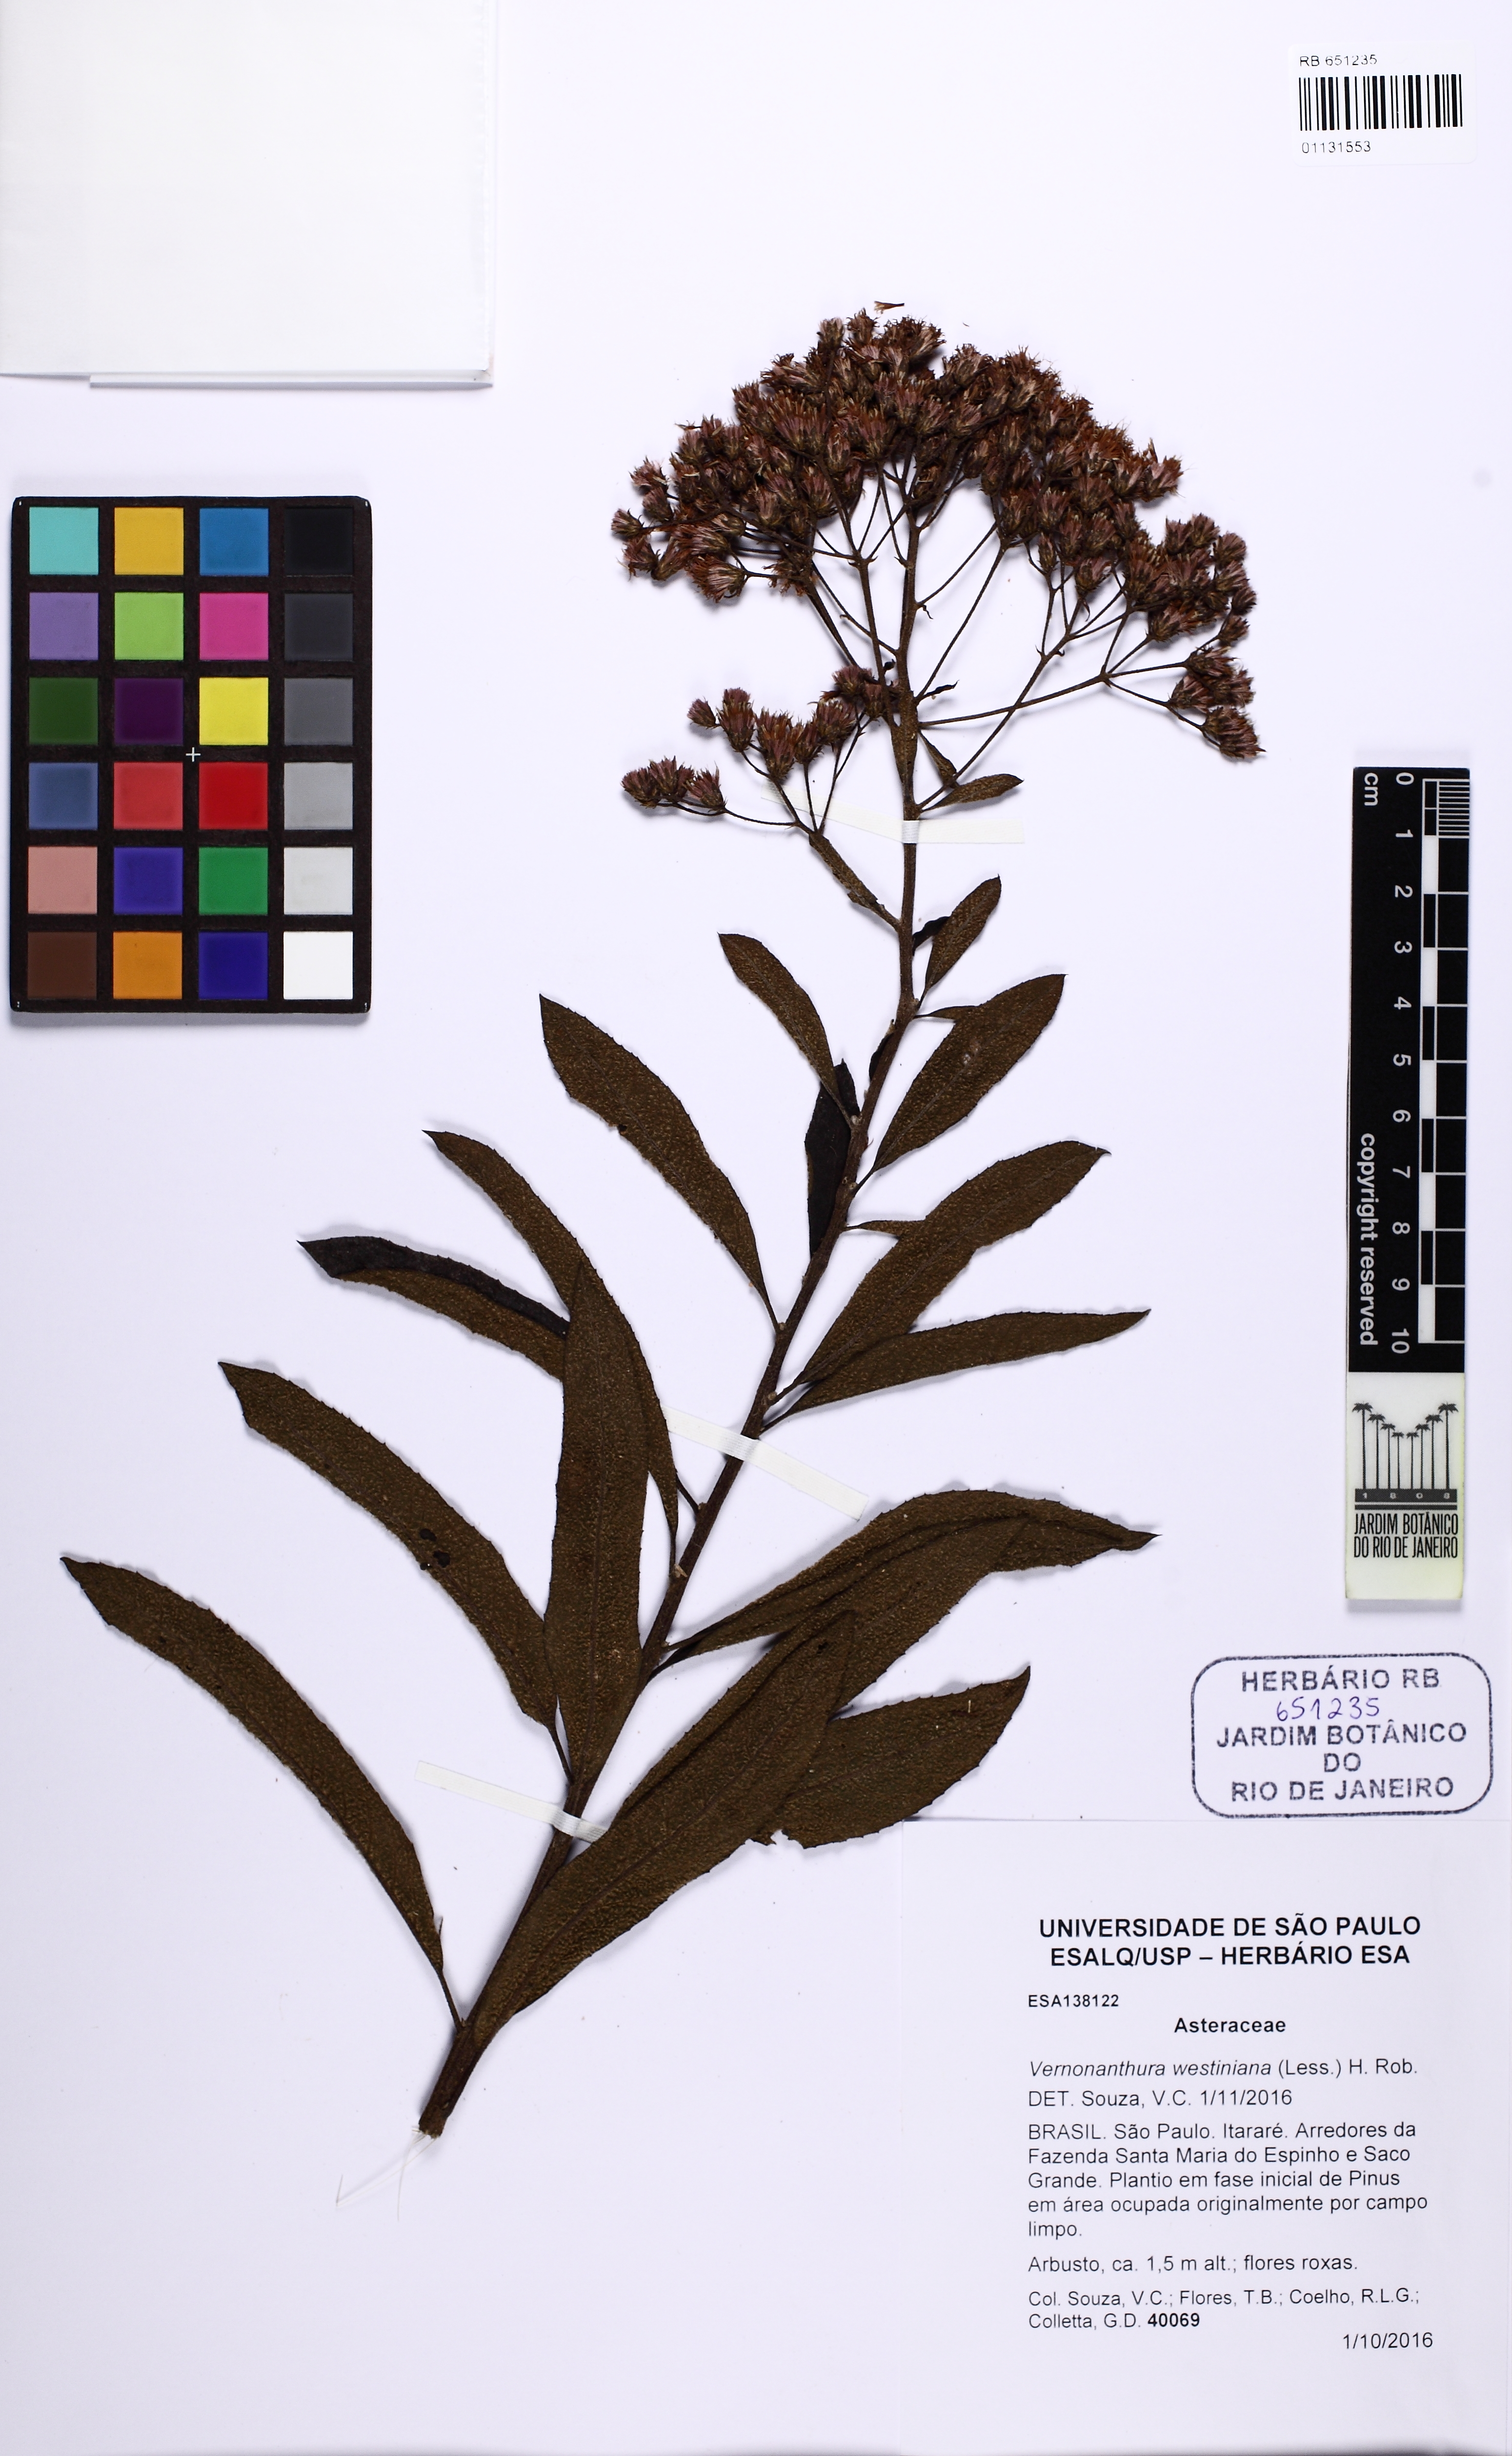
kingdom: Plantae
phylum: Tracheophyta
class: Magnoliopsida
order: Asterales
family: Asteraceae
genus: Vernonanthura
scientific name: Vernonanthura westiniana
